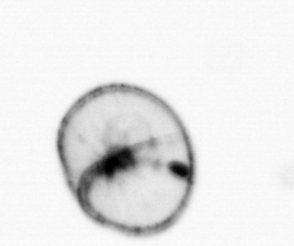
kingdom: Chromista
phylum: Myzozoa
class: Dinophyceae
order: Noctilucales
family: Noctilucaceae
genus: Noctiluca
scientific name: Noctiluca scintillans
